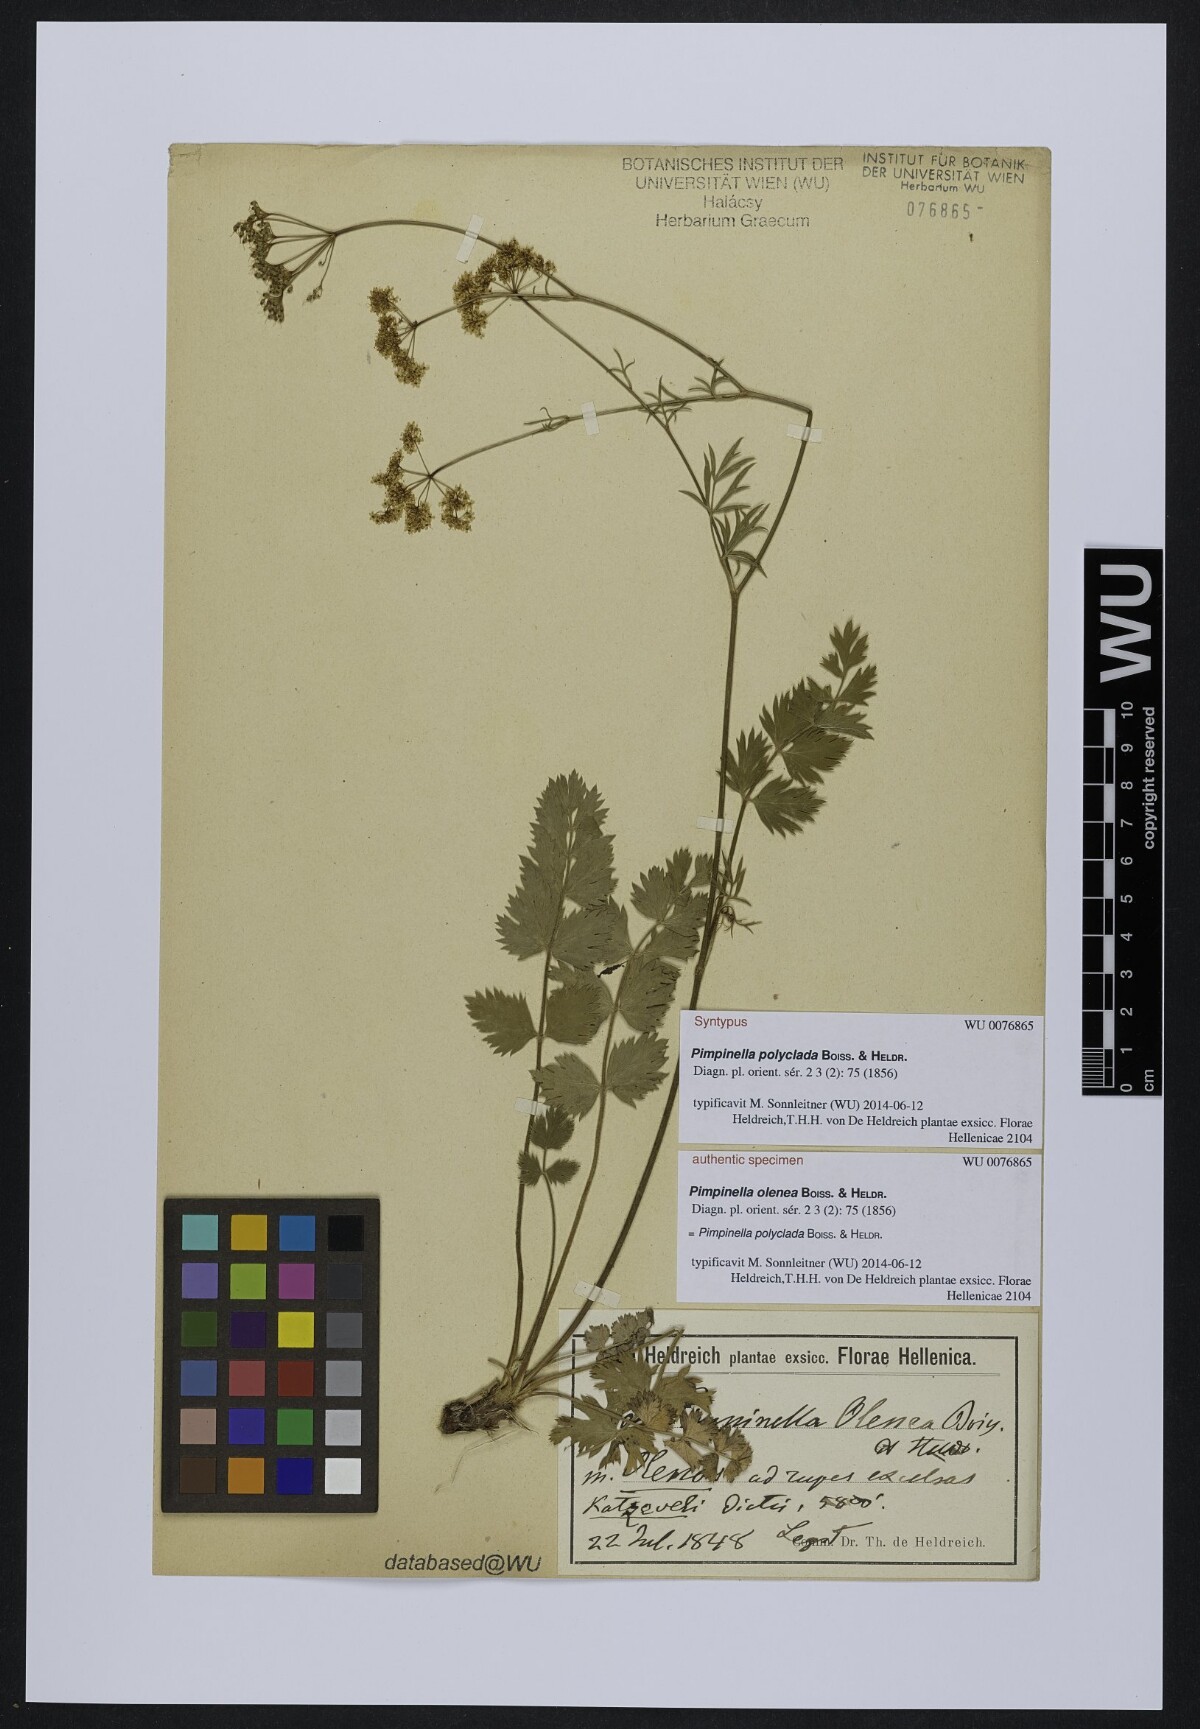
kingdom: Plantae
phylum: Tracheophyta
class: Magnoliopsida
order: Apiales
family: Apiaceae
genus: Pimpinella
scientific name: Pimpinella tragium
